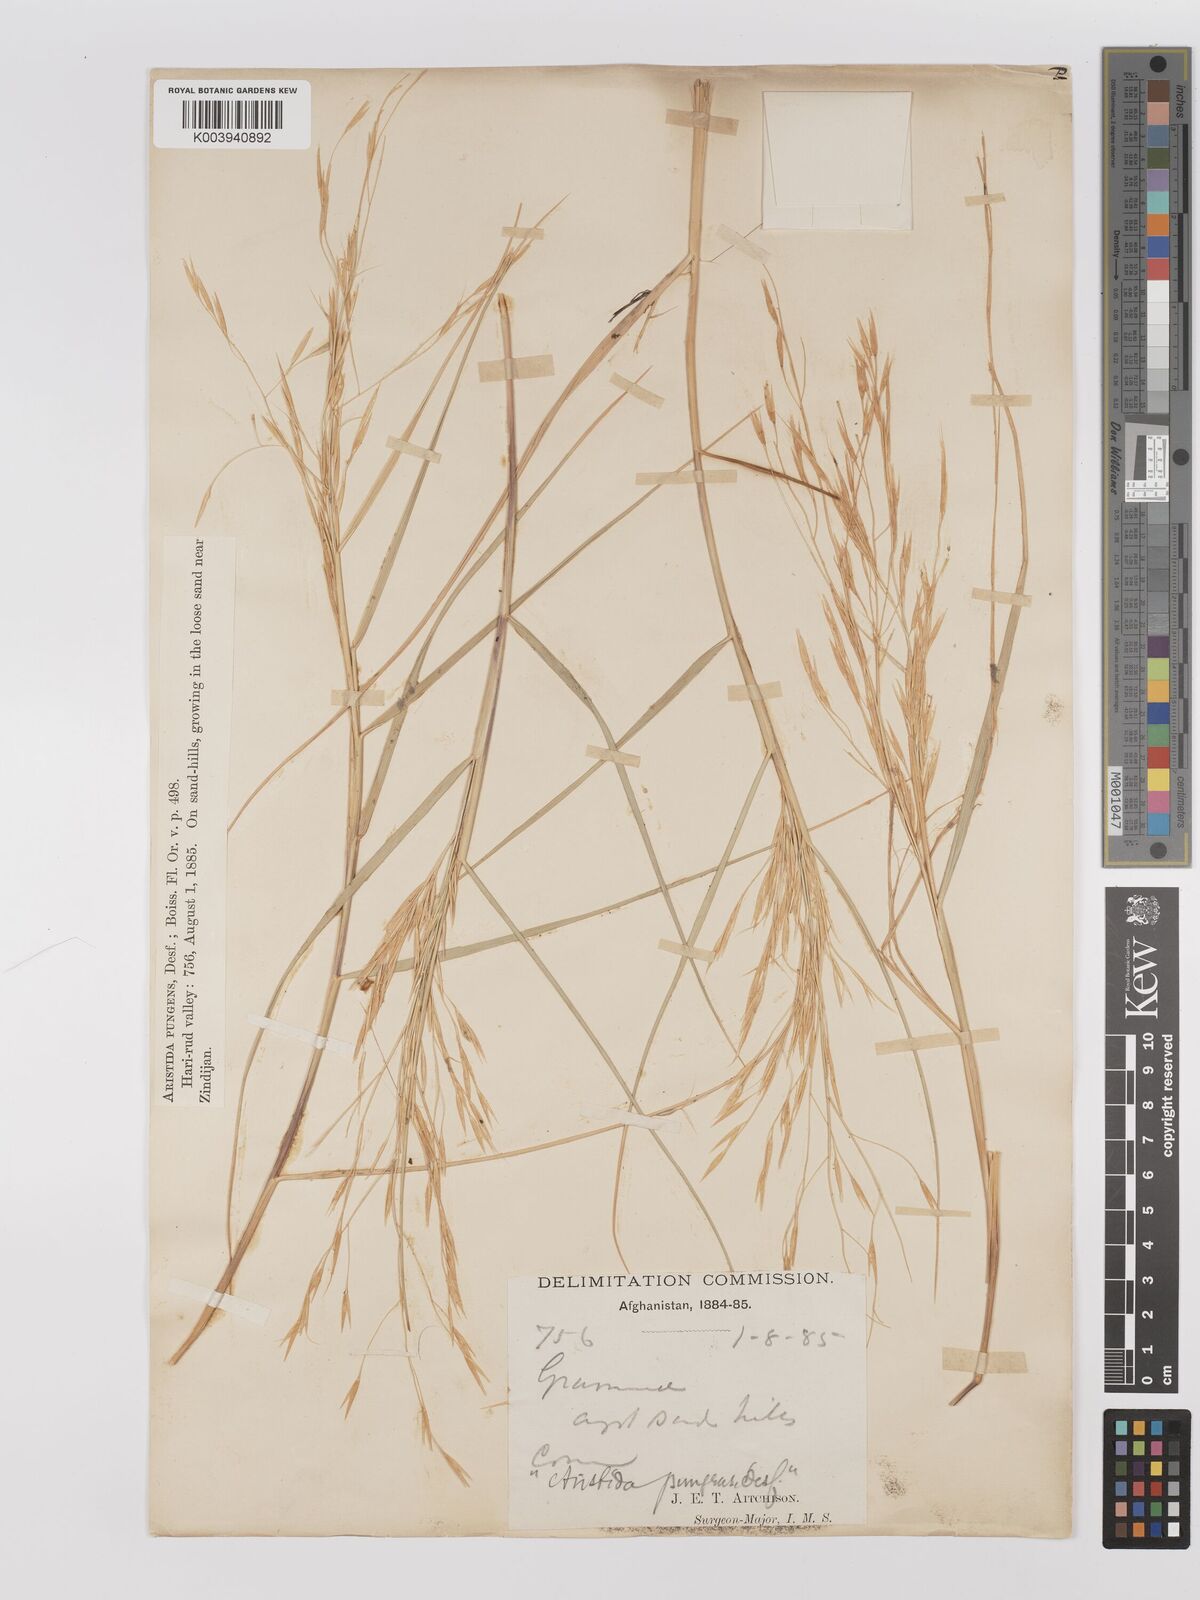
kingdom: Plantae
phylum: Tracheophyta
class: Liliopsida
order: Poales
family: Poaceae
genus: Stipagrostis
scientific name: Stipagrostis
